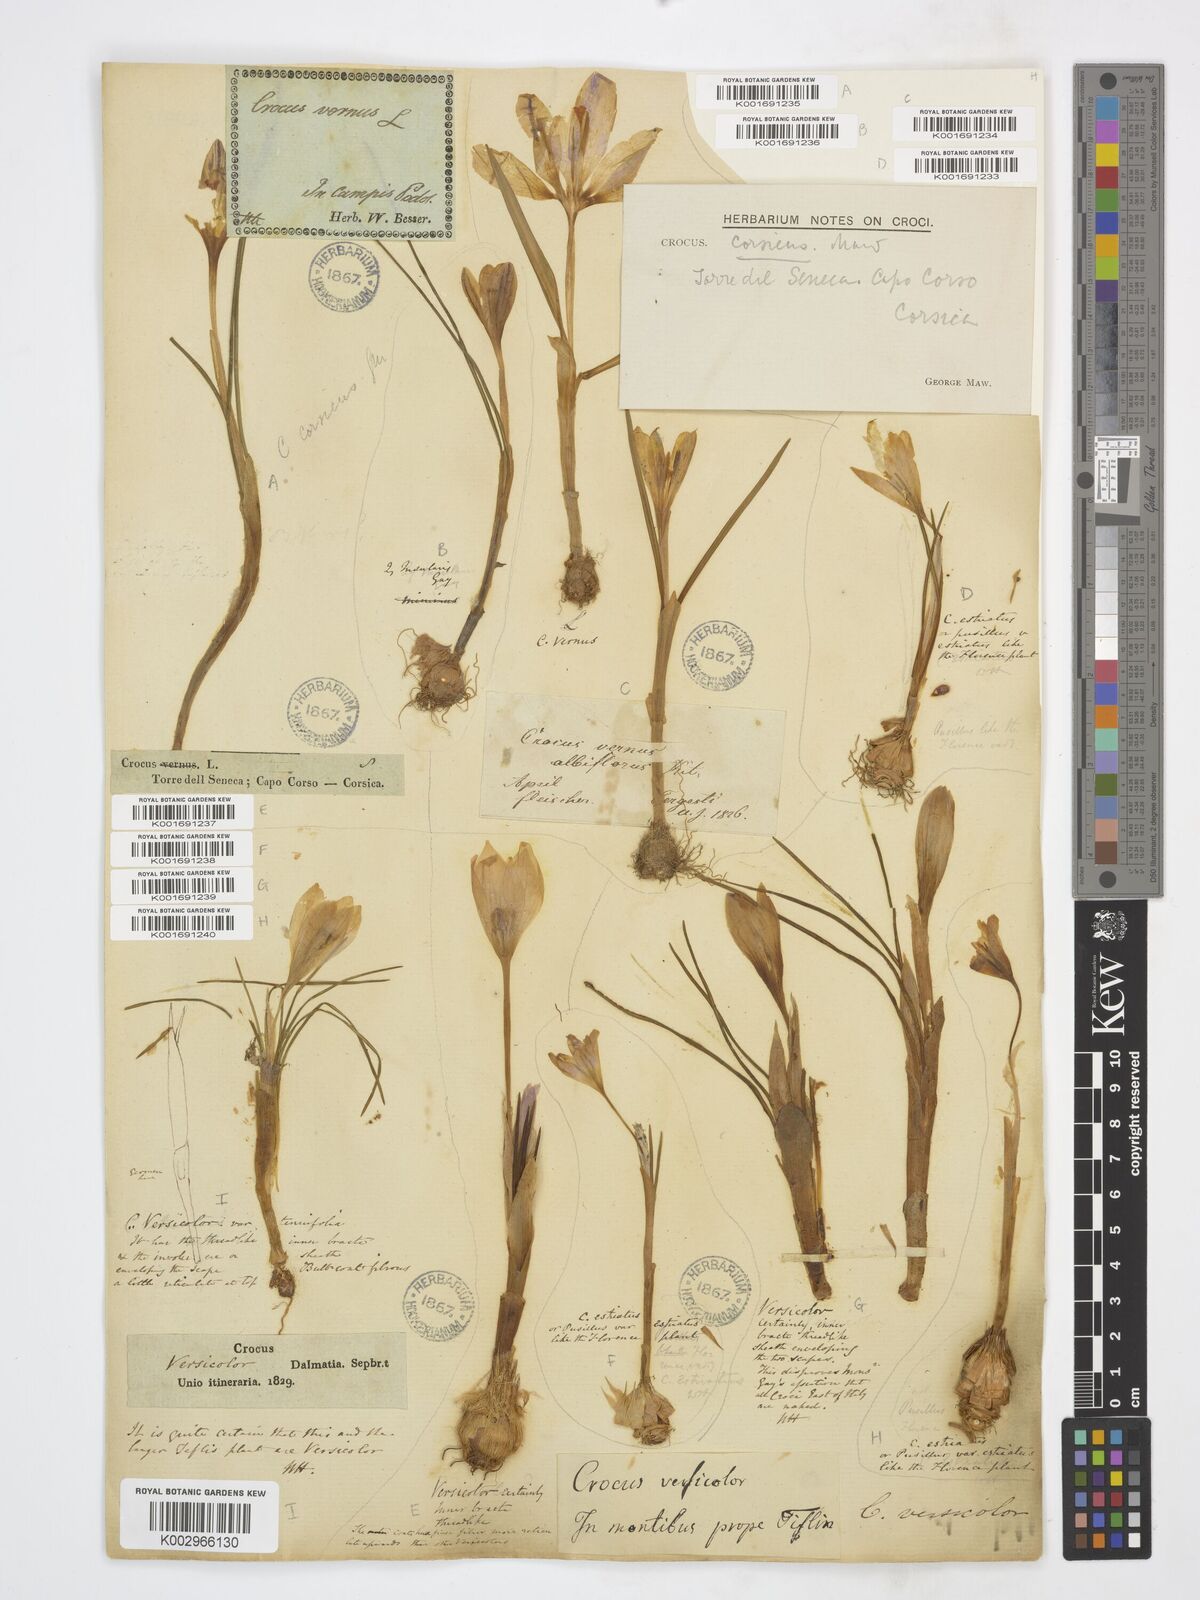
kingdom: Plantae
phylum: Tracheophyta
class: Liliopsida
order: Asparagales
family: Iridaceae
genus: Crocus
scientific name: Crocus biflorus
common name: Silvery crocus
